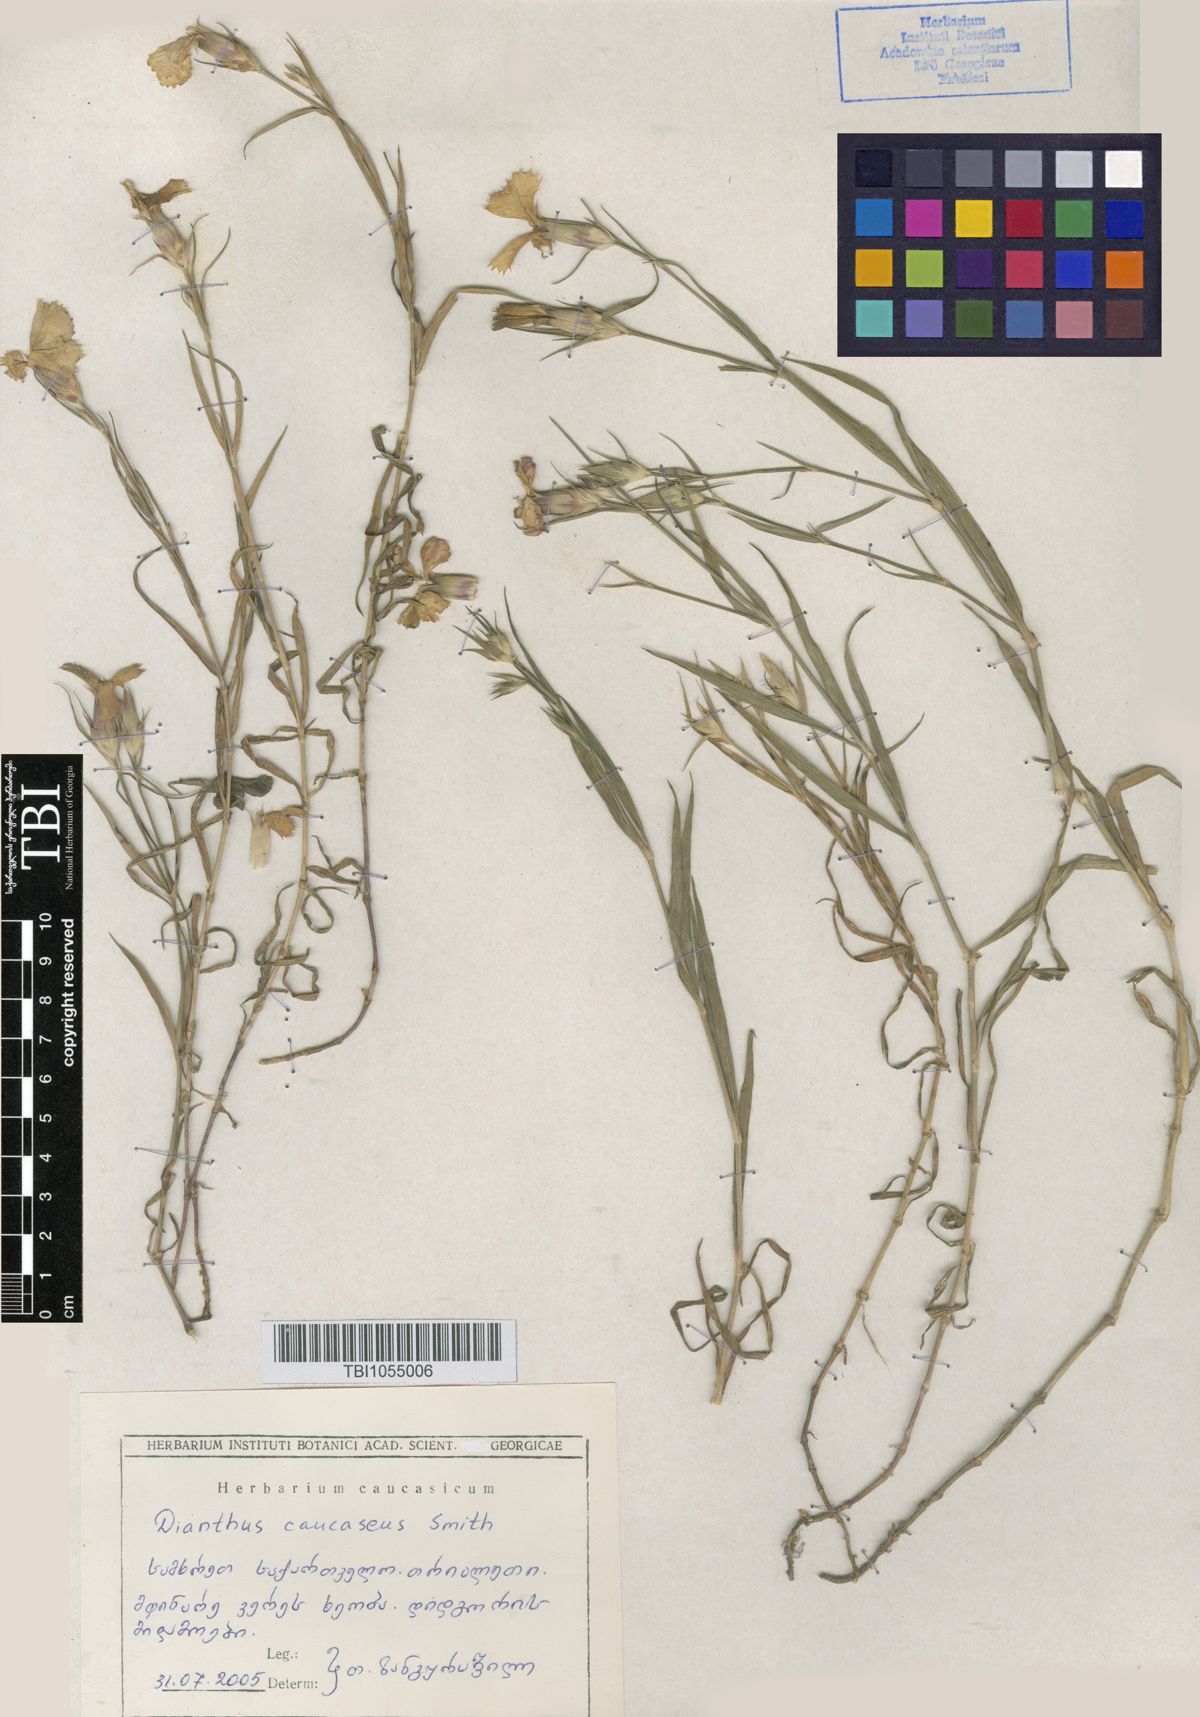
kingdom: Plantae
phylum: Tracheophyta
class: Magnoliopsida
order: Caryophyllales
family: Caryophyllaceae
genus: Dianthus
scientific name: Dianthus caucaseus
